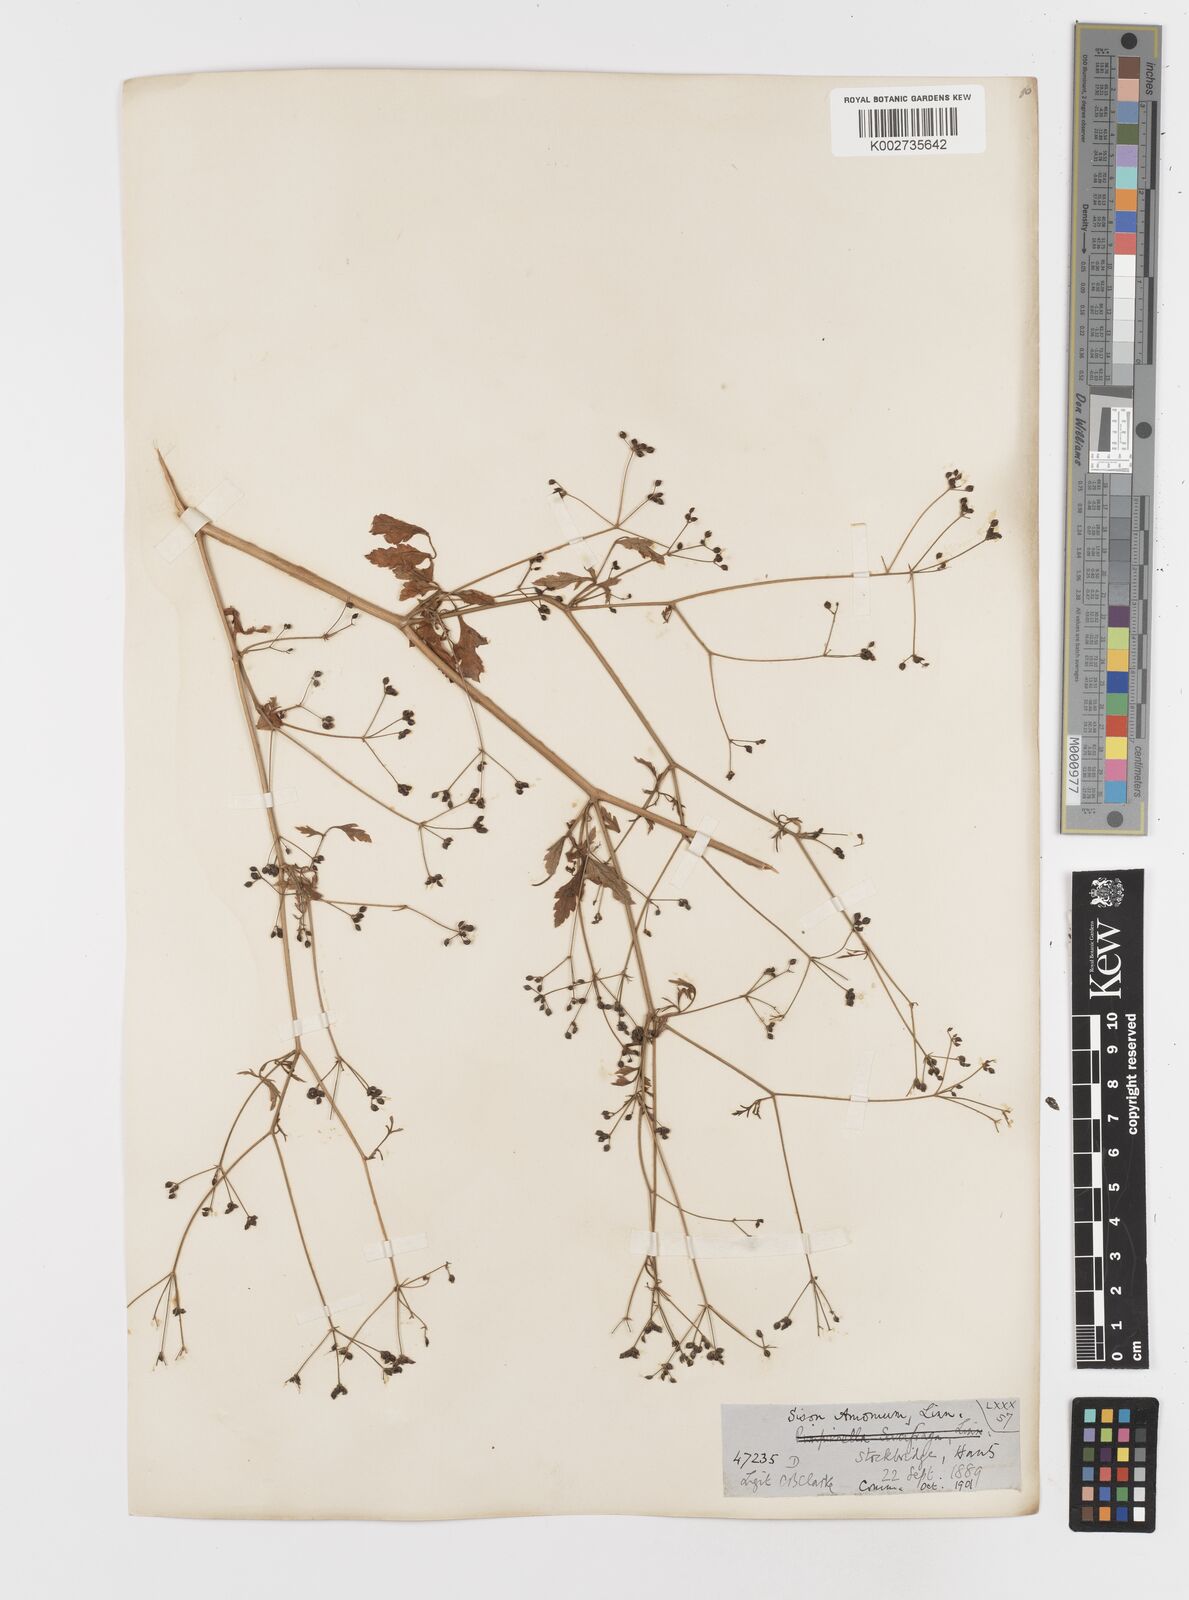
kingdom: Plantae
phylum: Tracheophyta
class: Magnoliopsida
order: Apiales
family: Apiaceae
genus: Sison
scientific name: Sison amomum
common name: Stone-parsley
